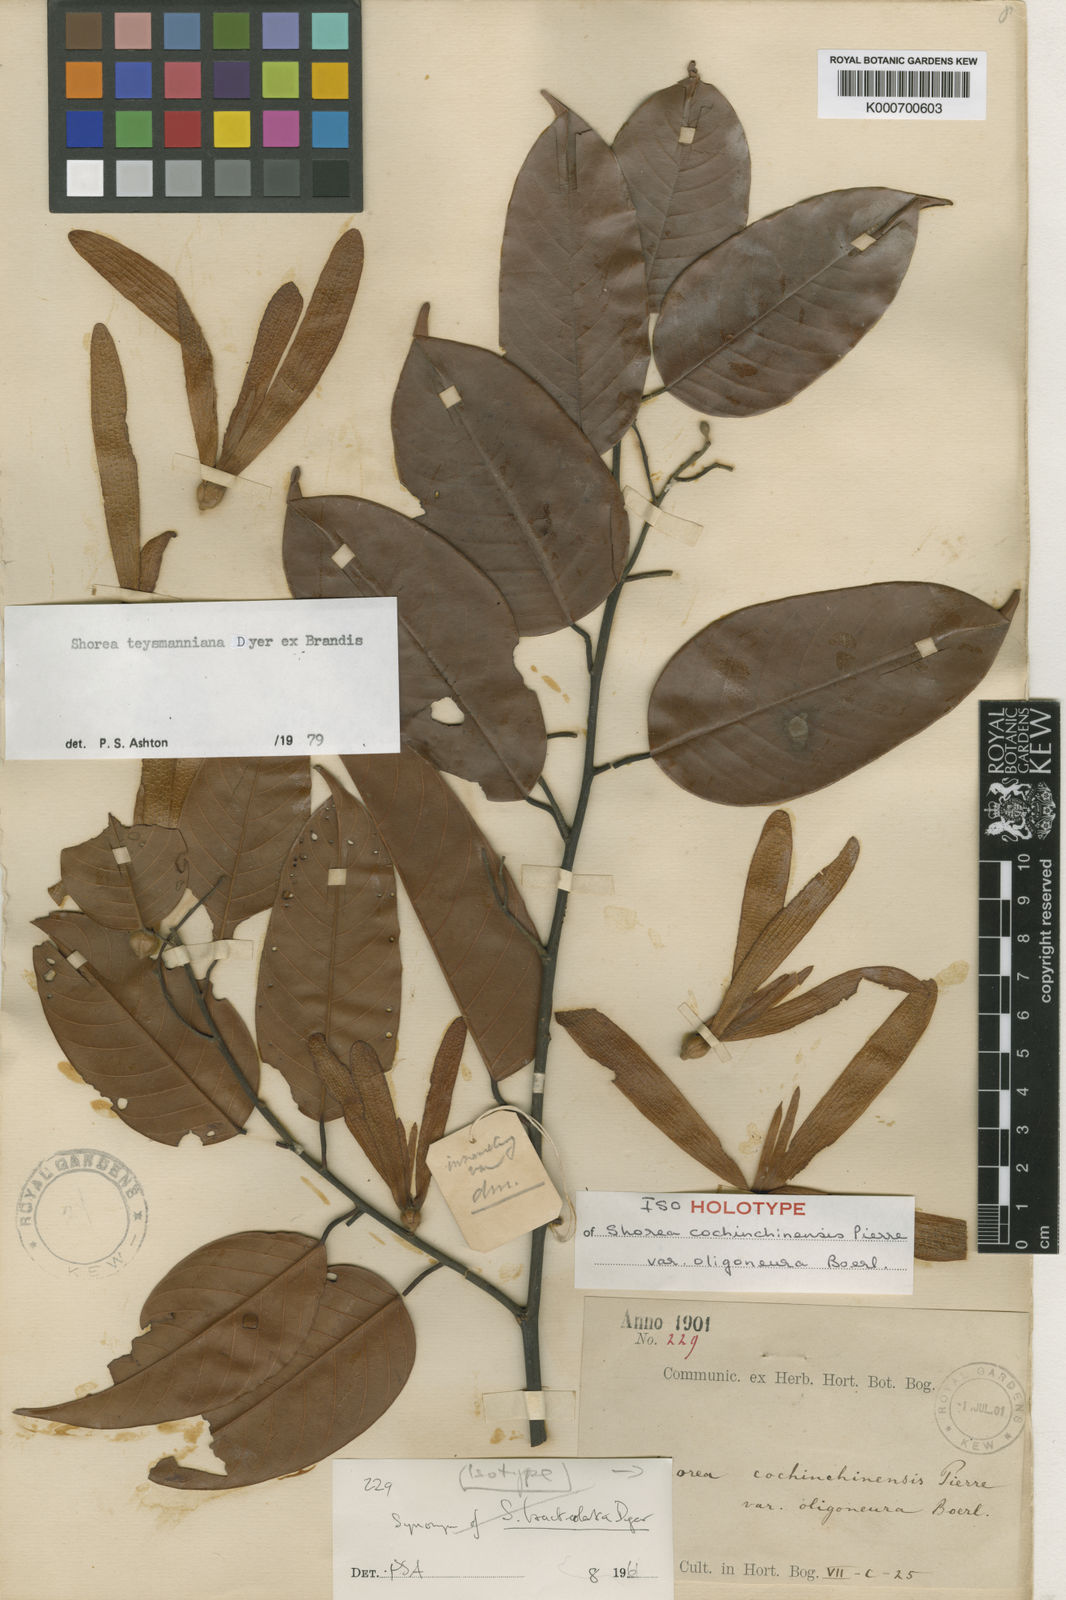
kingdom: Plantae
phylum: Tracheophyta
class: Magnoliopsida
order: Malvales
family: Dipterocarpaceae
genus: Shorea
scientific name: Shorea teysmanniana
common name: Light red meranti
